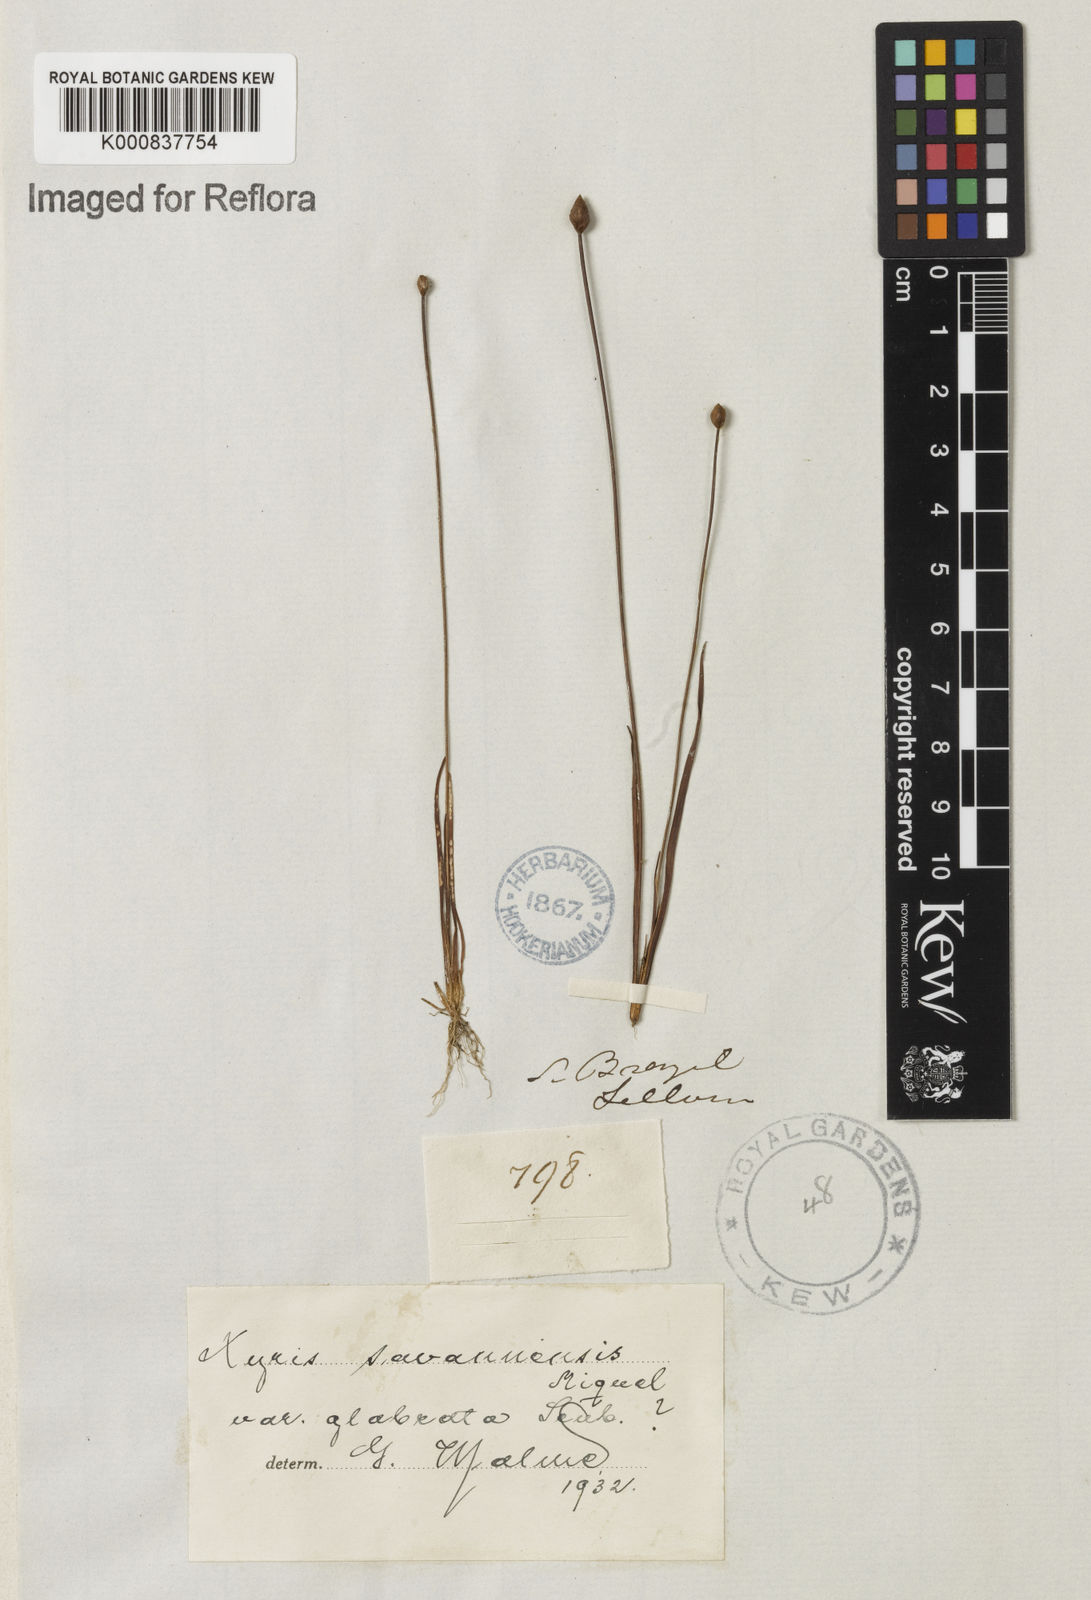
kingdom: Plantae
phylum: Tracheophyta
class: Liliopsida
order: Poales
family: Xyridaceae
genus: Xyris
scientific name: Xyris savanensis
